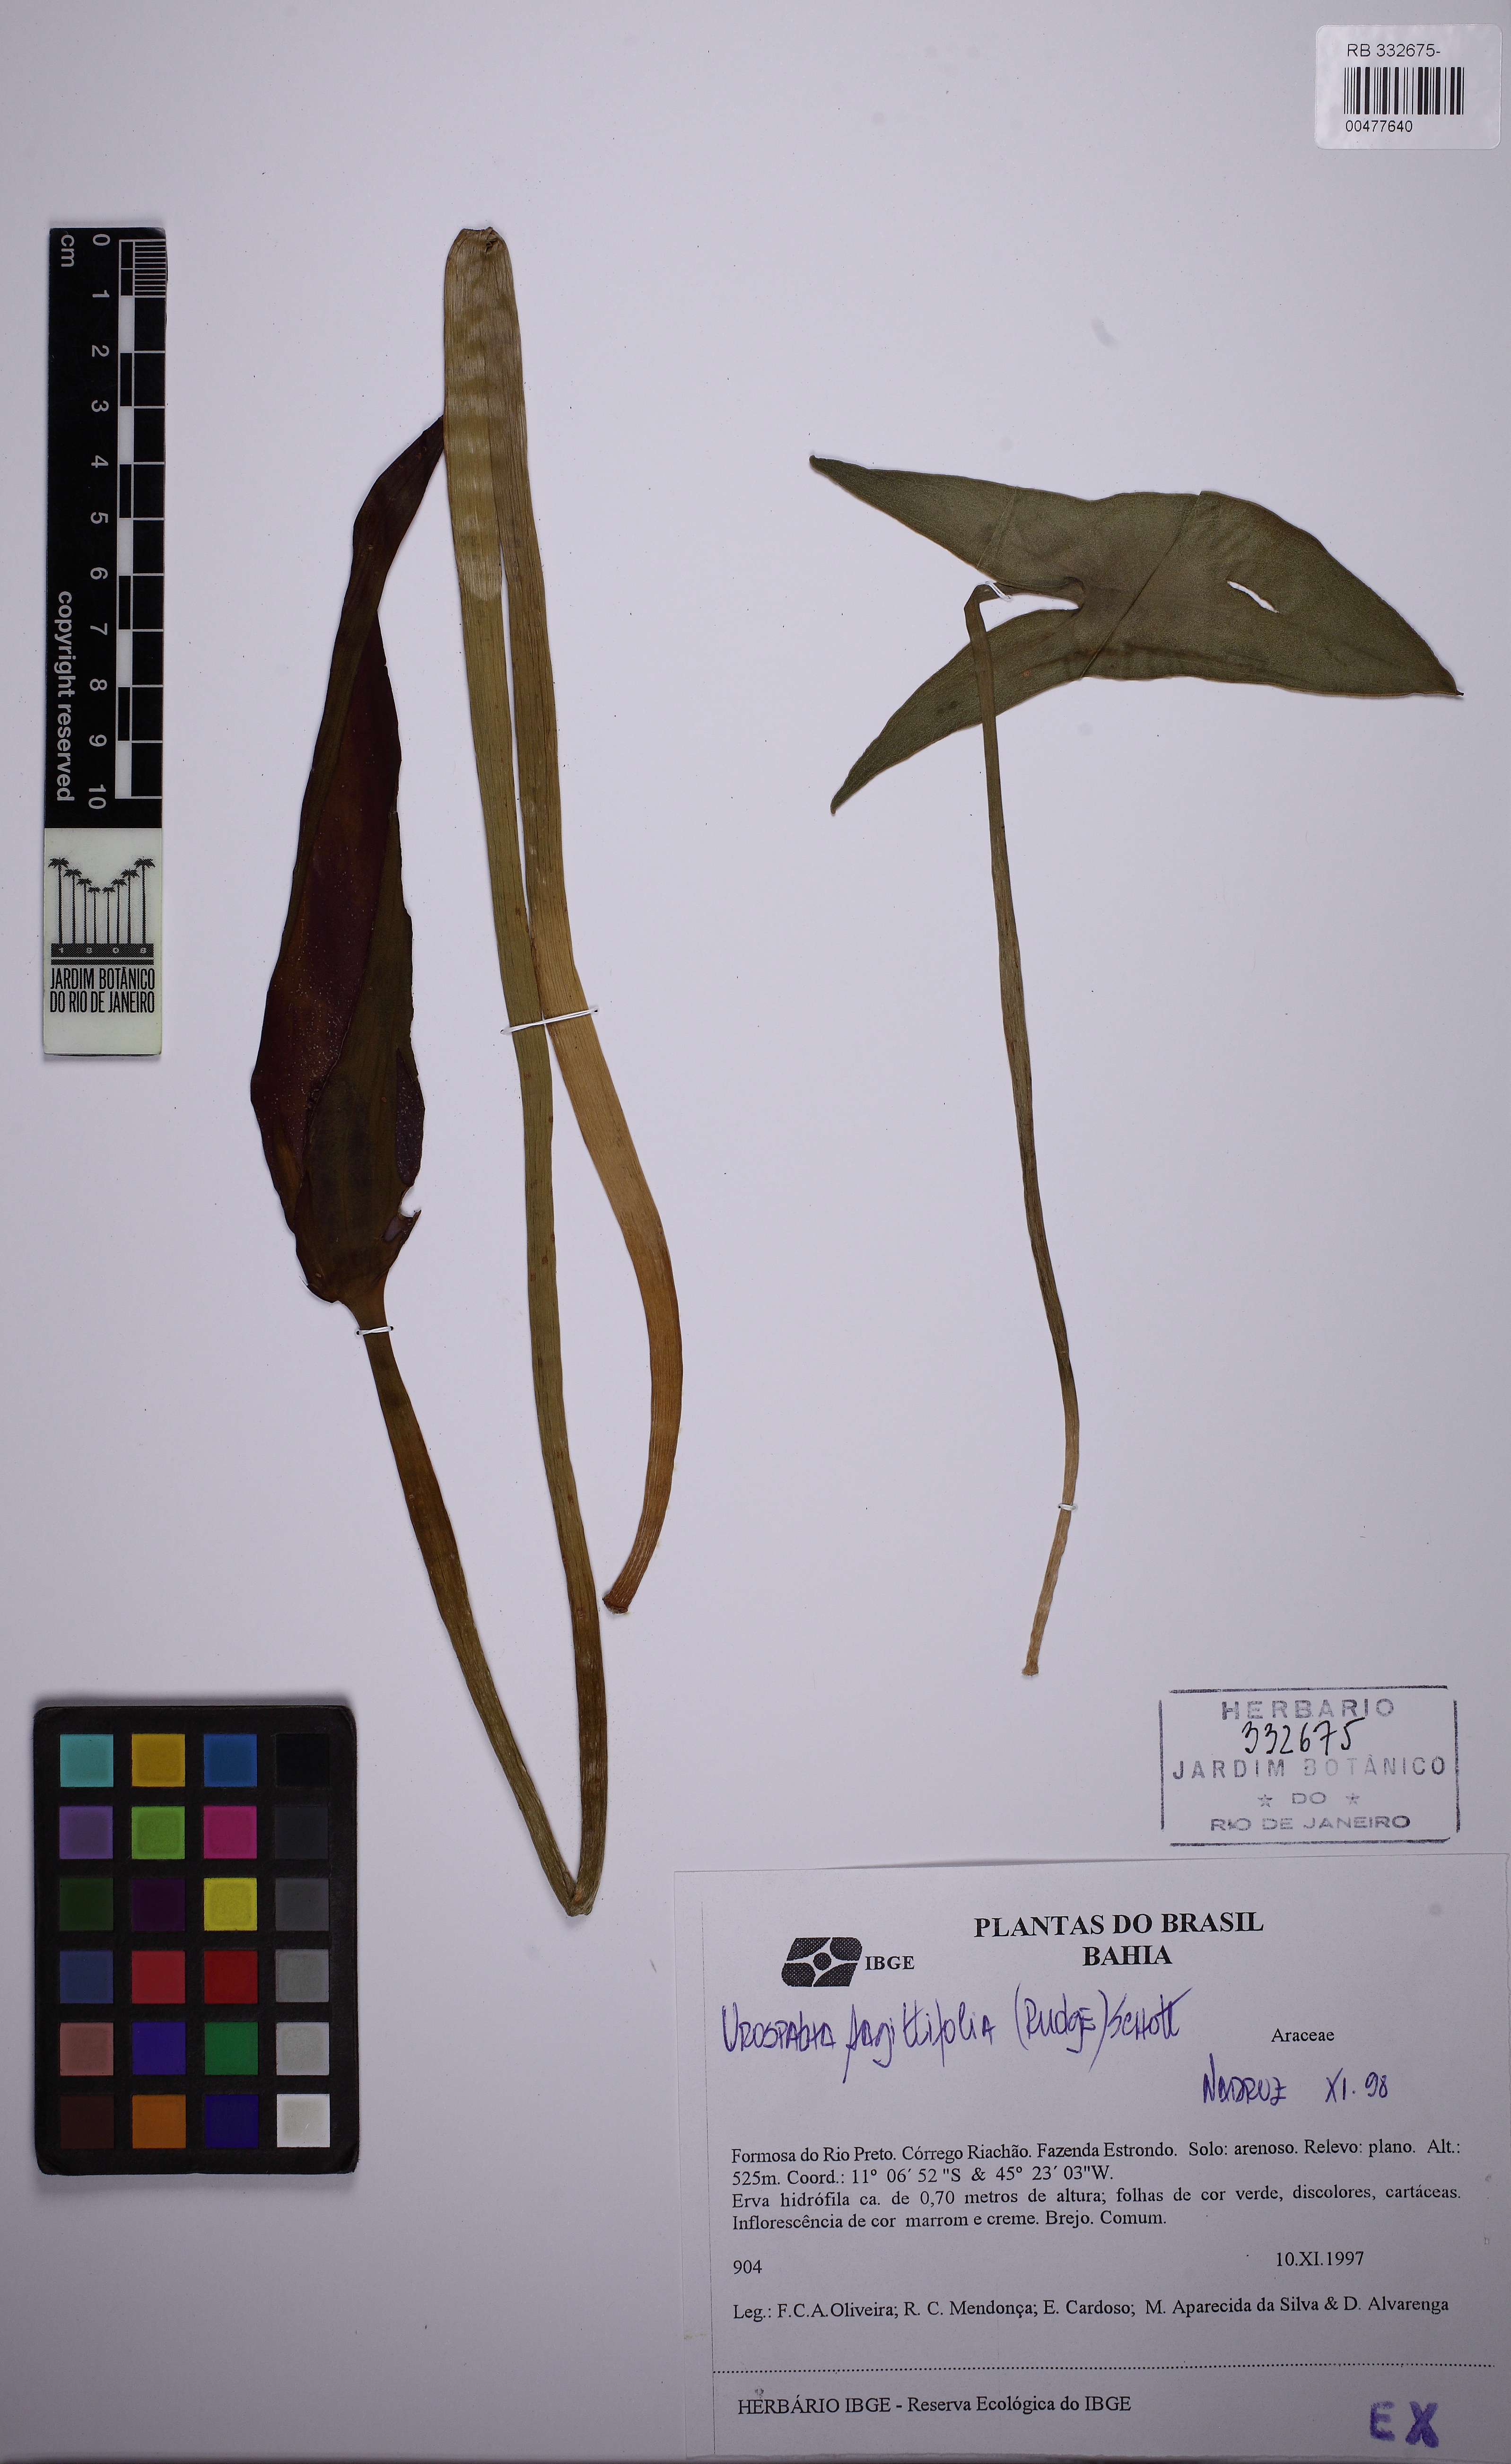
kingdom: Plantae
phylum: Tracheophyta
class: Liliopsida
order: Alismatales
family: Araceae
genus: Urospatha
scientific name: Urospatha edwallii
